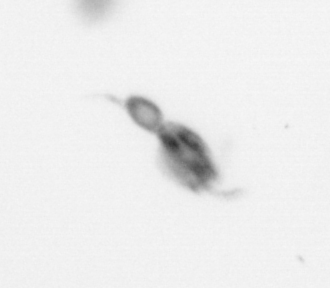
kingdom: Animalia
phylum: Arthropoda
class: Copepoda
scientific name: Copepoda
